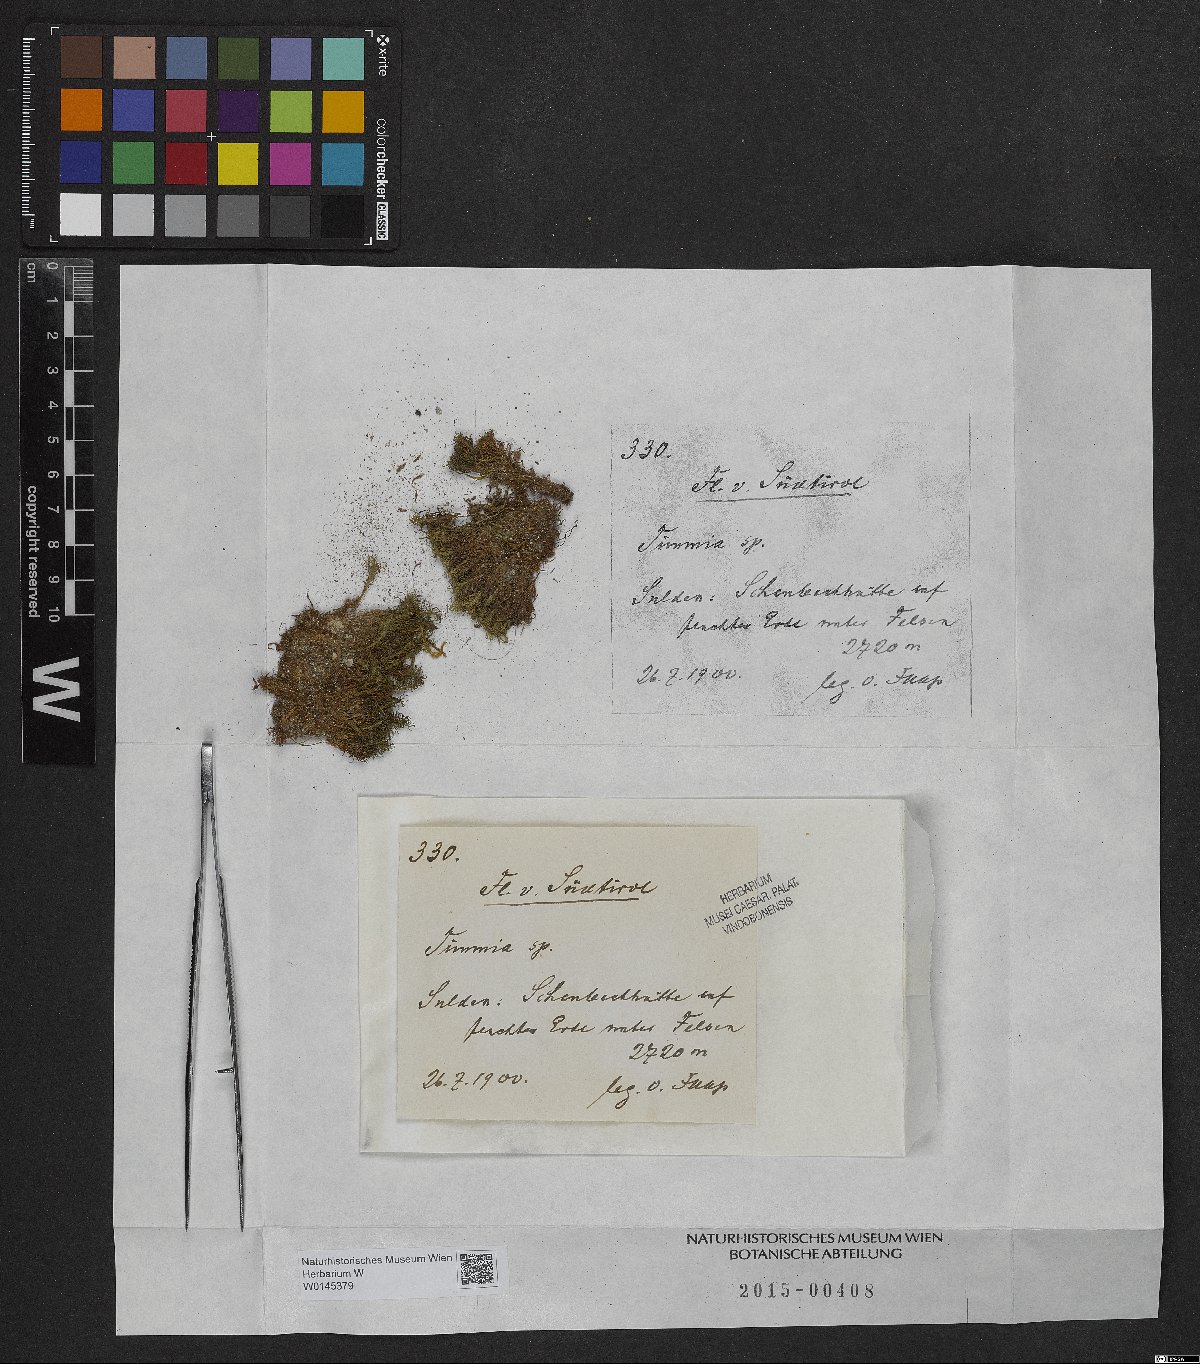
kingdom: Plantae
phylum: Bryophyta
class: Bryopsida
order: Timmiales
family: Timmiaceae
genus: Timmia
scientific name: Timmia
